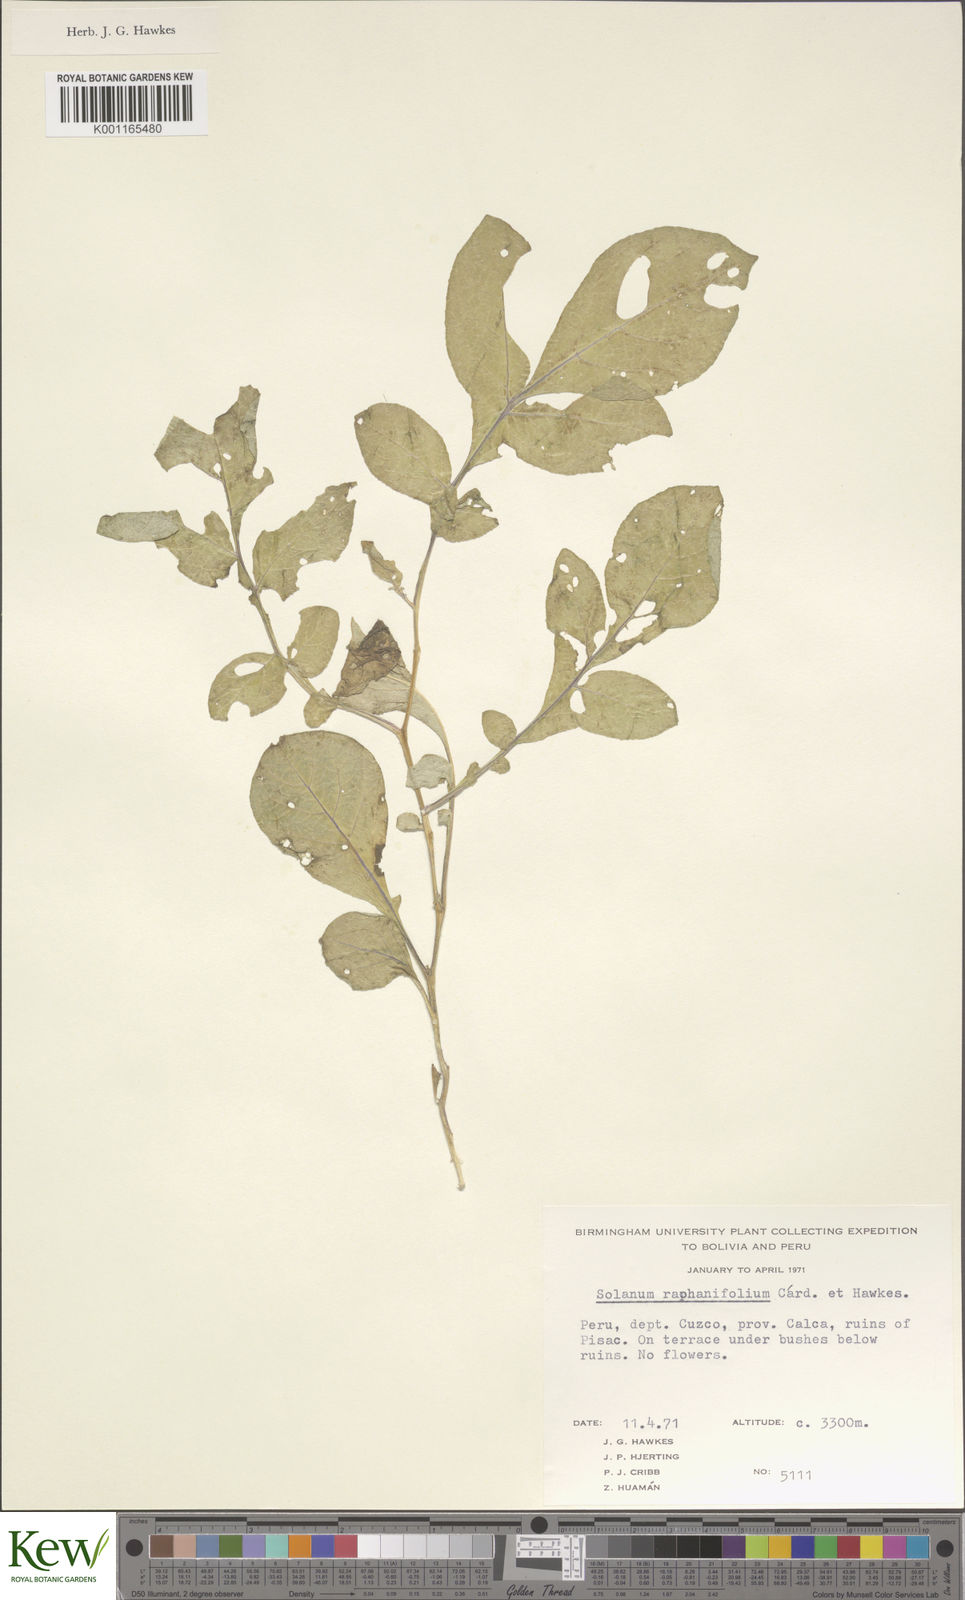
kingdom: Plantae
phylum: Tracheophyta
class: Magnoliopsida
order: Solanales
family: Solanaceae
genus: Solanum
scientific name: Solanum raphanifolium
